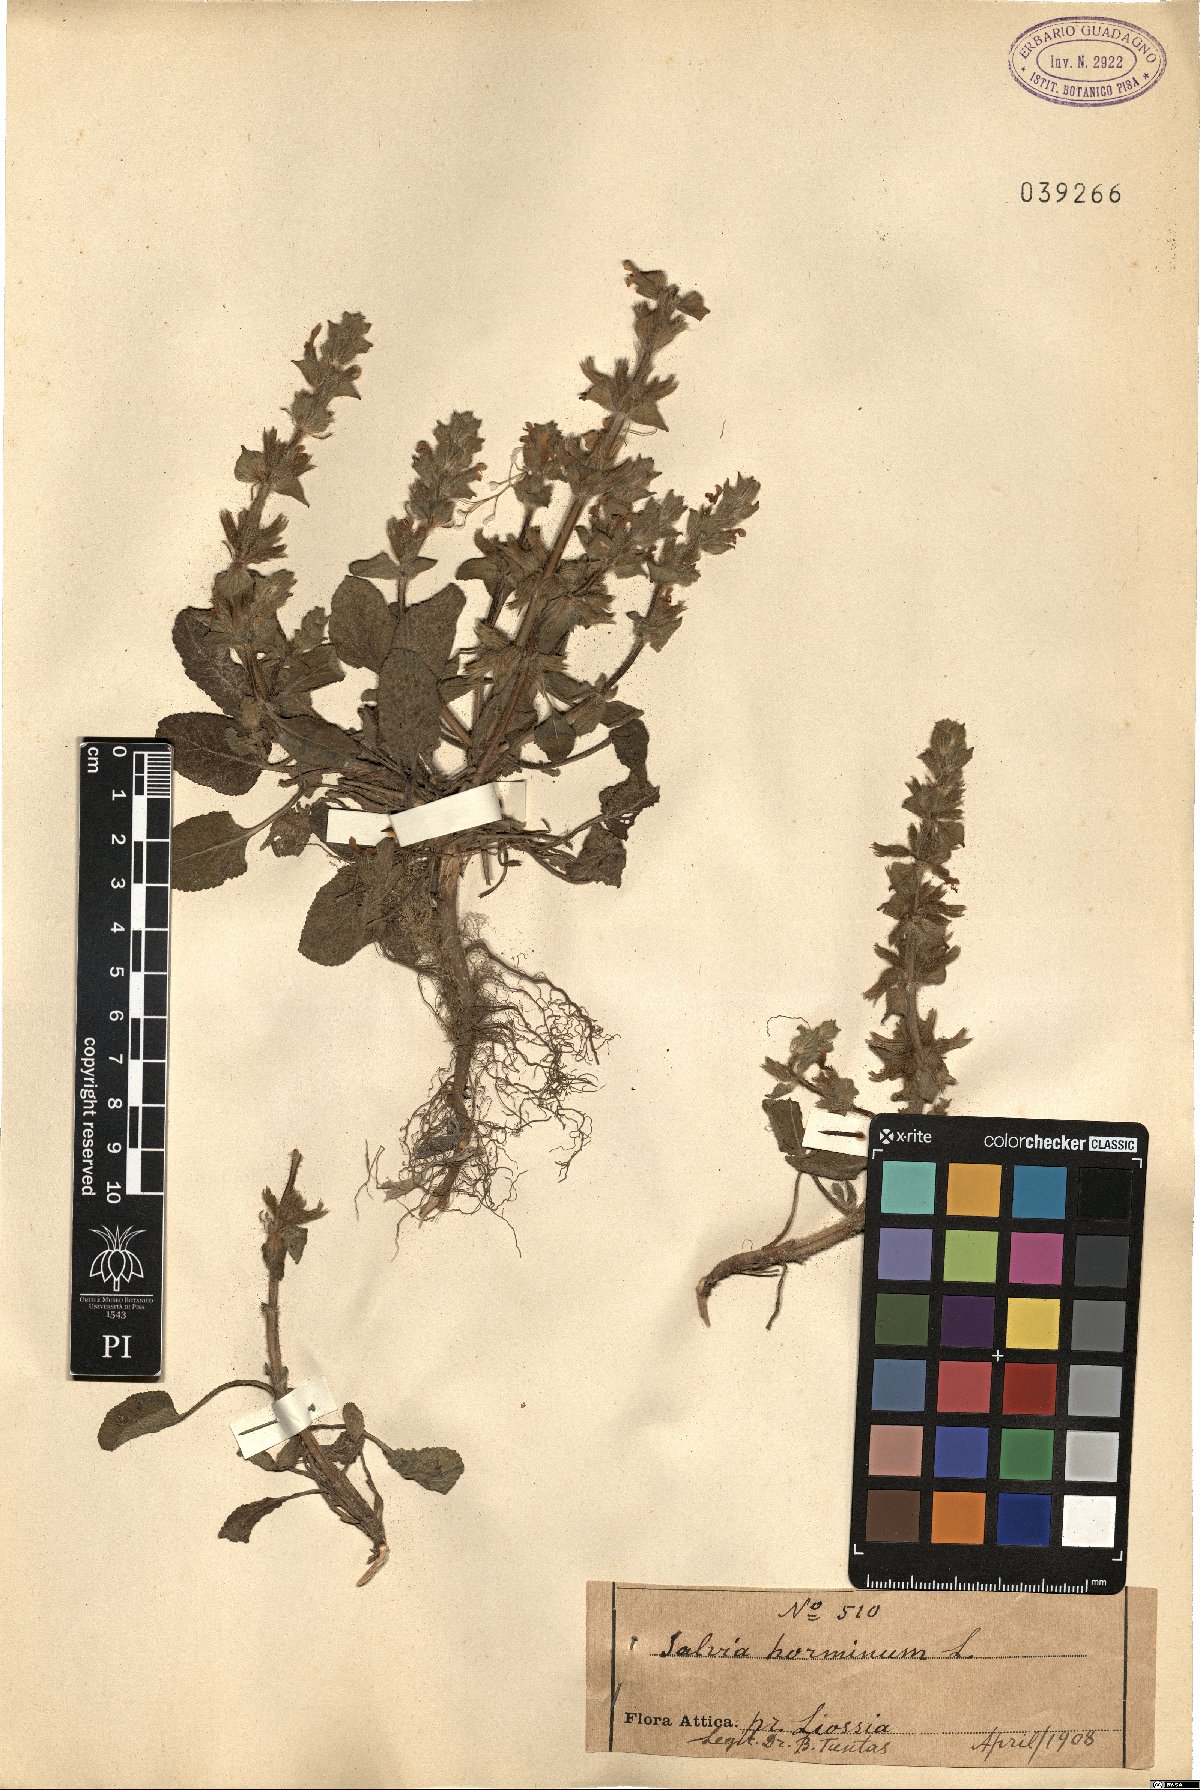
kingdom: Plantae
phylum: Tracheophyta
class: Magnoliopsida
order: Lamiales
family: Lamiaceae
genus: Salvia
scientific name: Salvia viridis
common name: Annual clary
